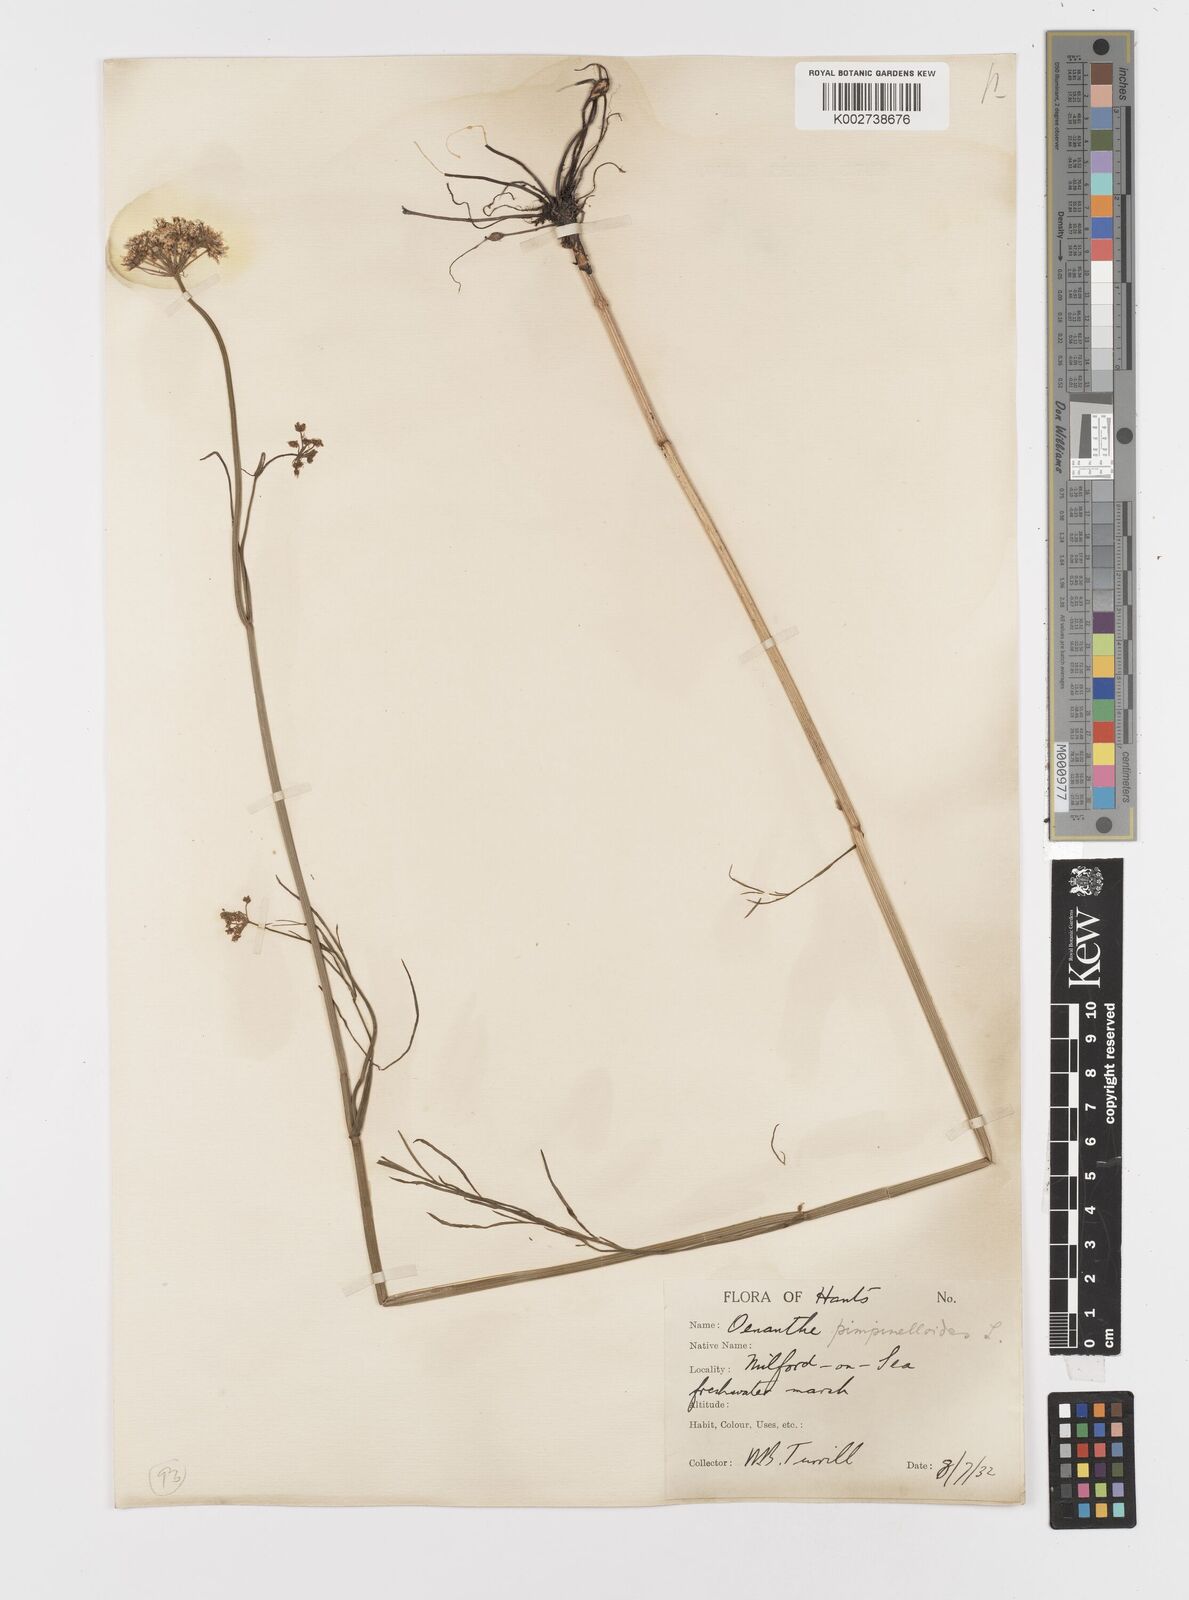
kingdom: Plantae
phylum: Tracheophyta
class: Magnoliopsida
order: Apiales
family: Apiaceae
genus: Oenanthe
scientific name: Oenanthe pimpinelloides
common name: Corky-fruited water-dropwort
